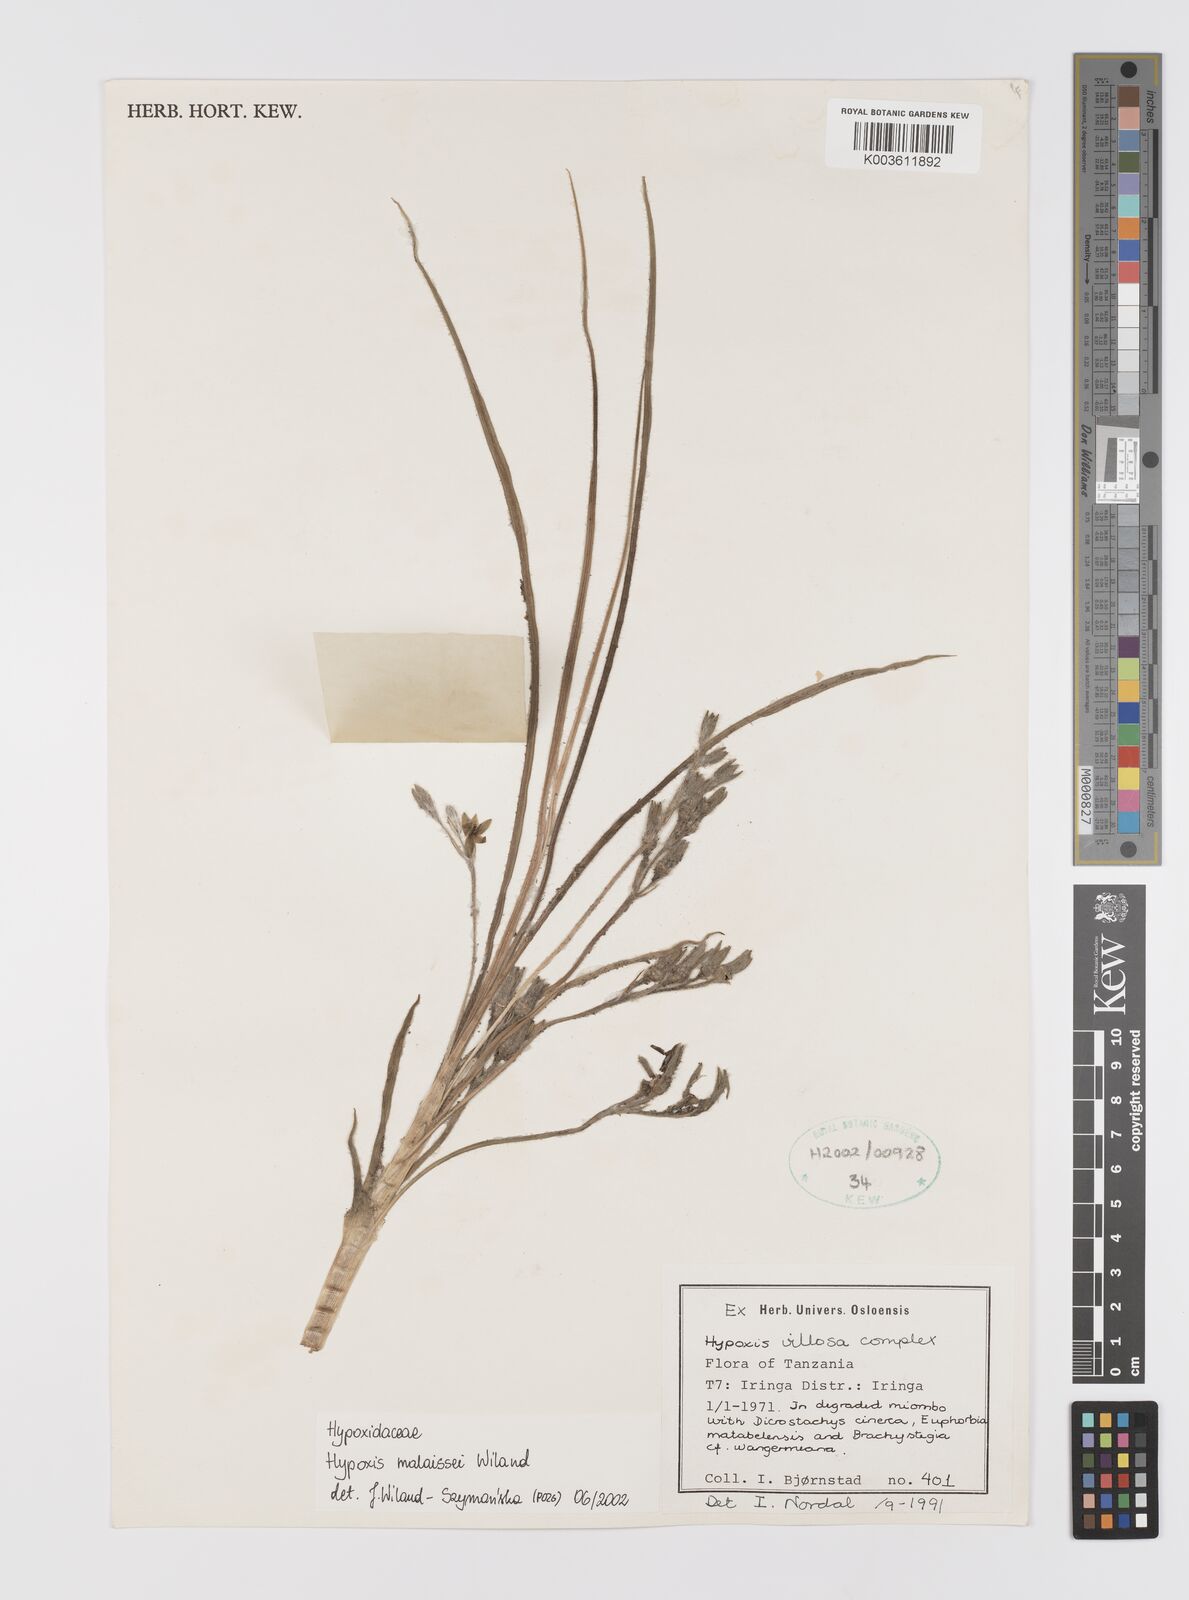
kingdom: Plantae
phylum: Tracheophyta
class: Liliopsida
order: Asparagales
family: Hypoxidaceae
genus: Hypoxis
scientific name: Hypoxis malaissei
